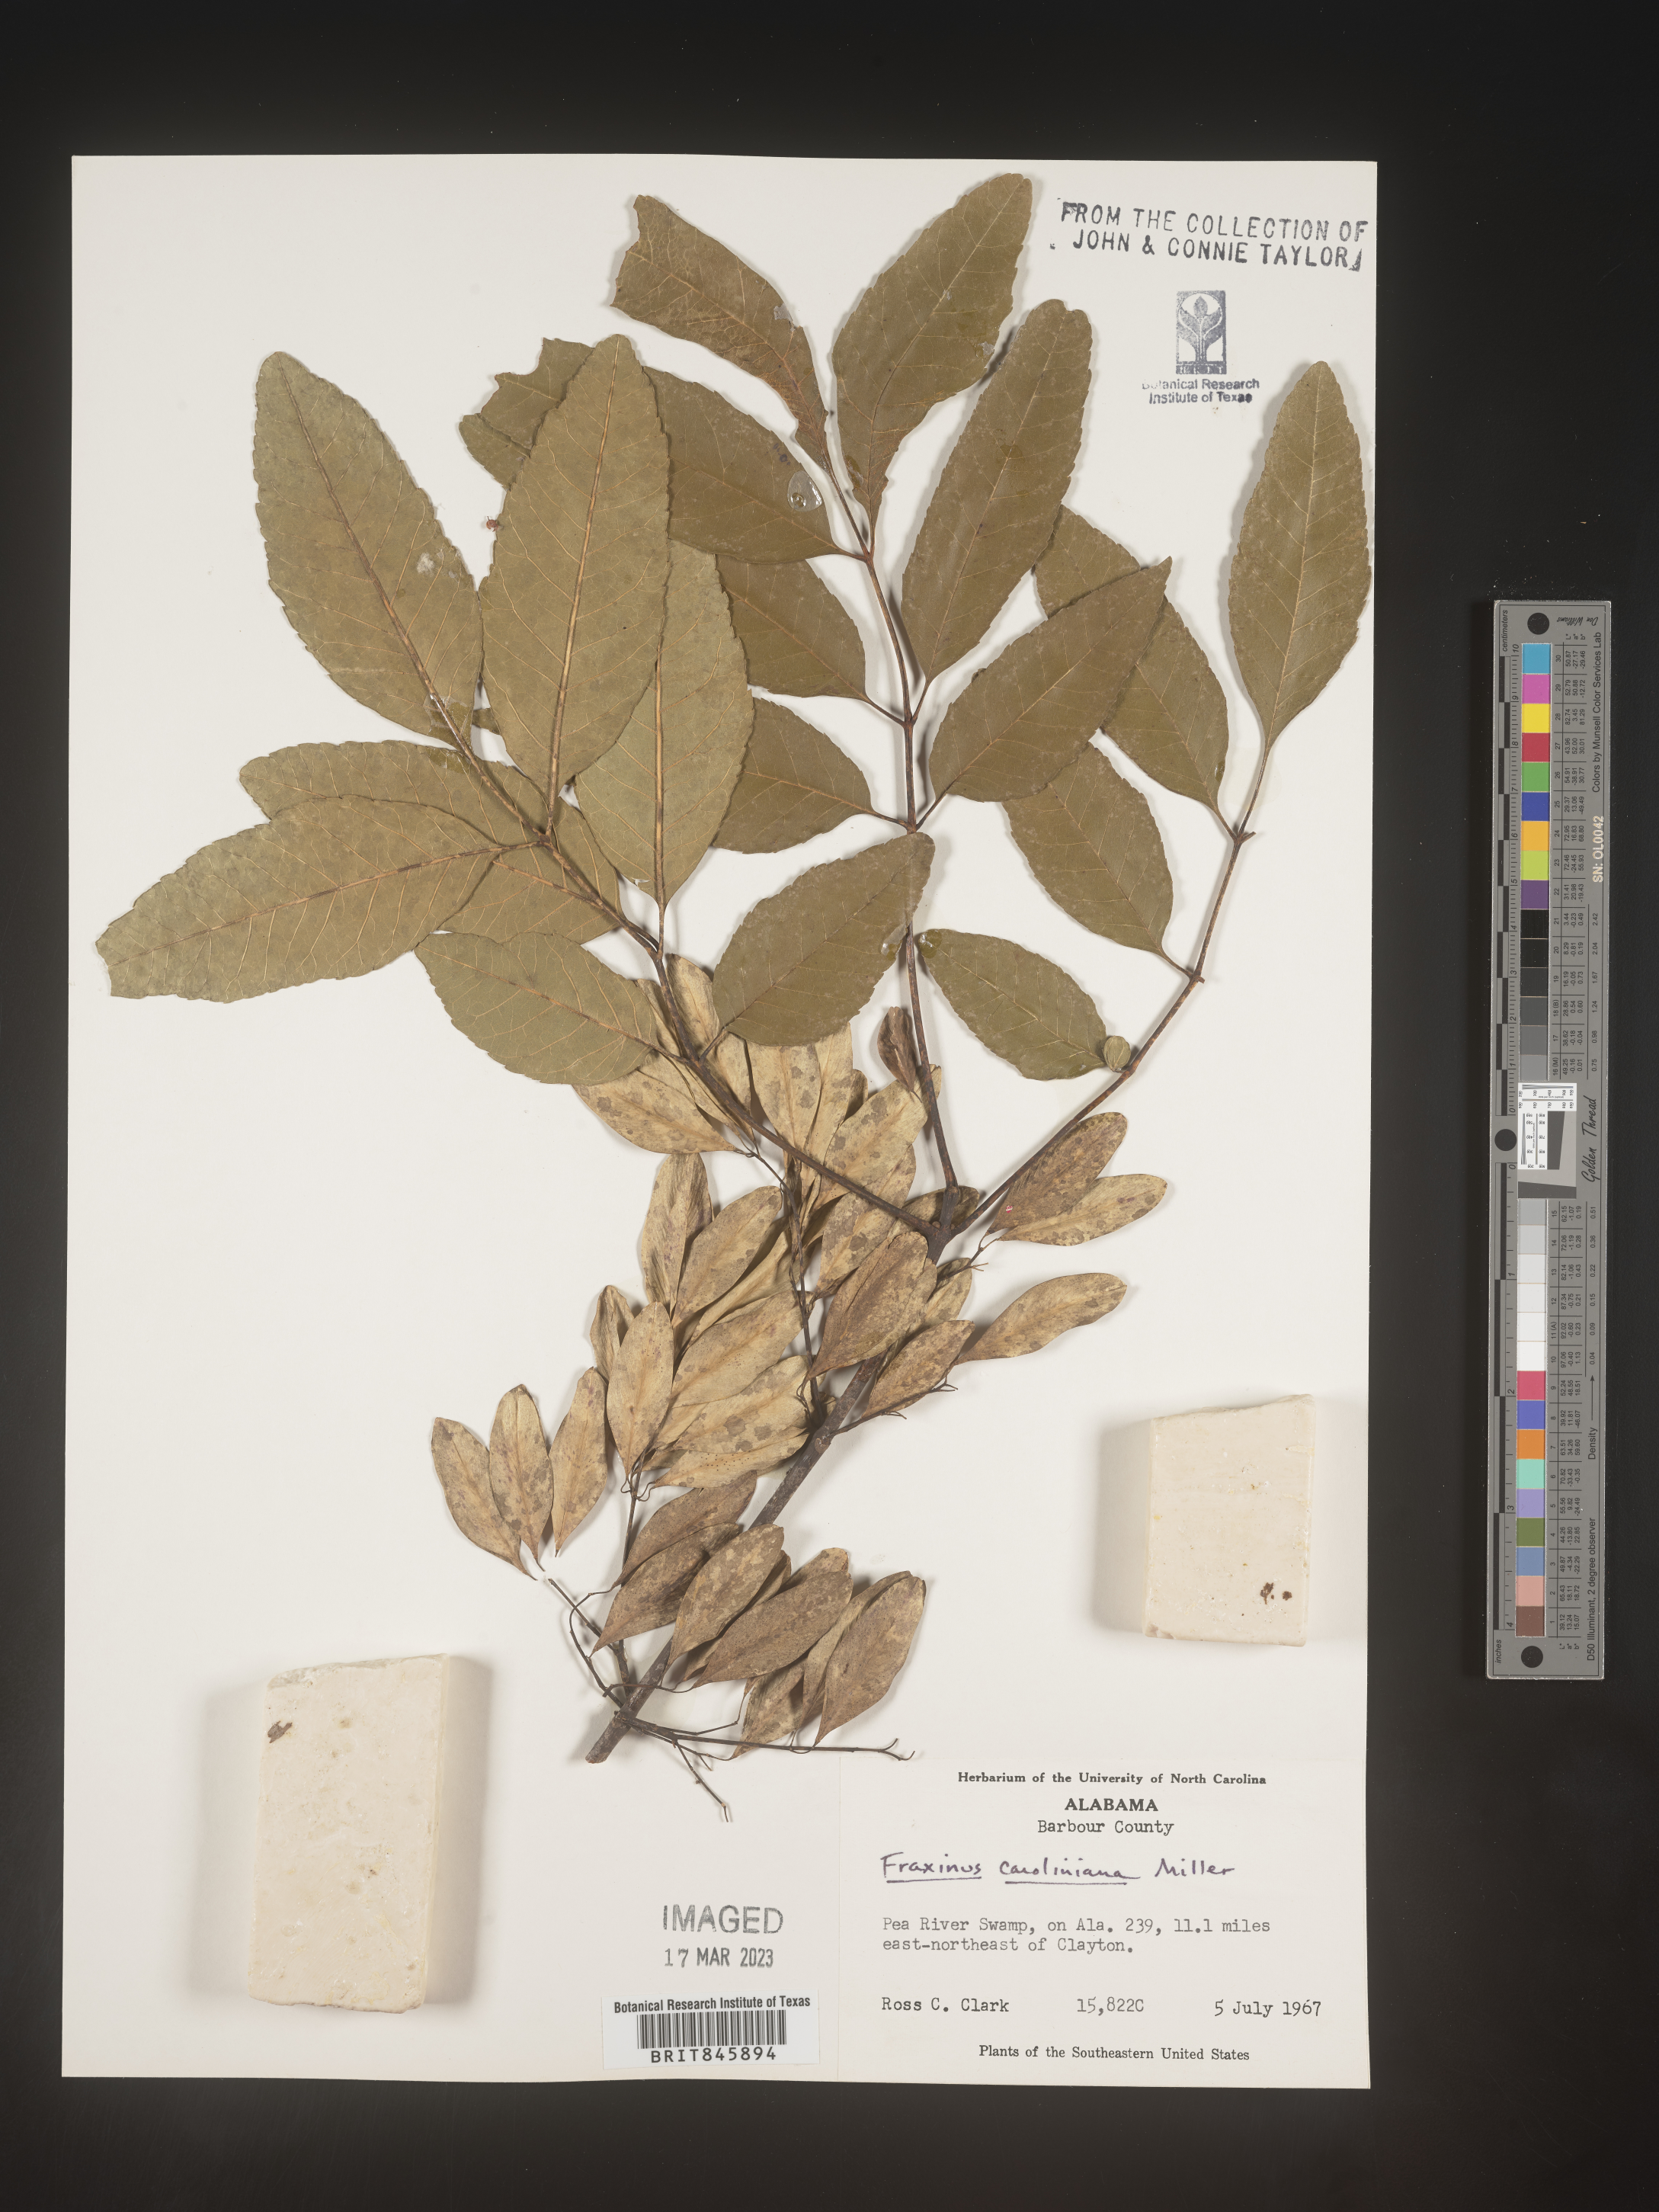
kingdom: Plantae
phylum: Tracheophyta
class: Magnoliopsida
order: Lamiales
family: Oleaceae
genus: Fraxinus
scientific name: Fraxinus caroliniana
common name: Carolina ash
